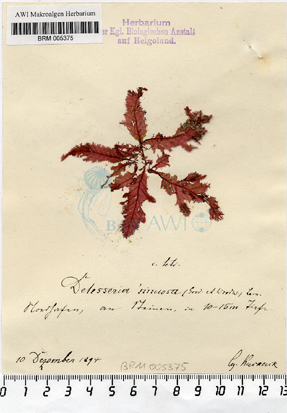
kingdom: Plantae
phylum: Rhodophyta
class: Florideophyceae
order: Ceramiales
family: Delesseriaceae
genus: Phycodrys
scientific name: Phycodrys rubens
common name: Sea oak
